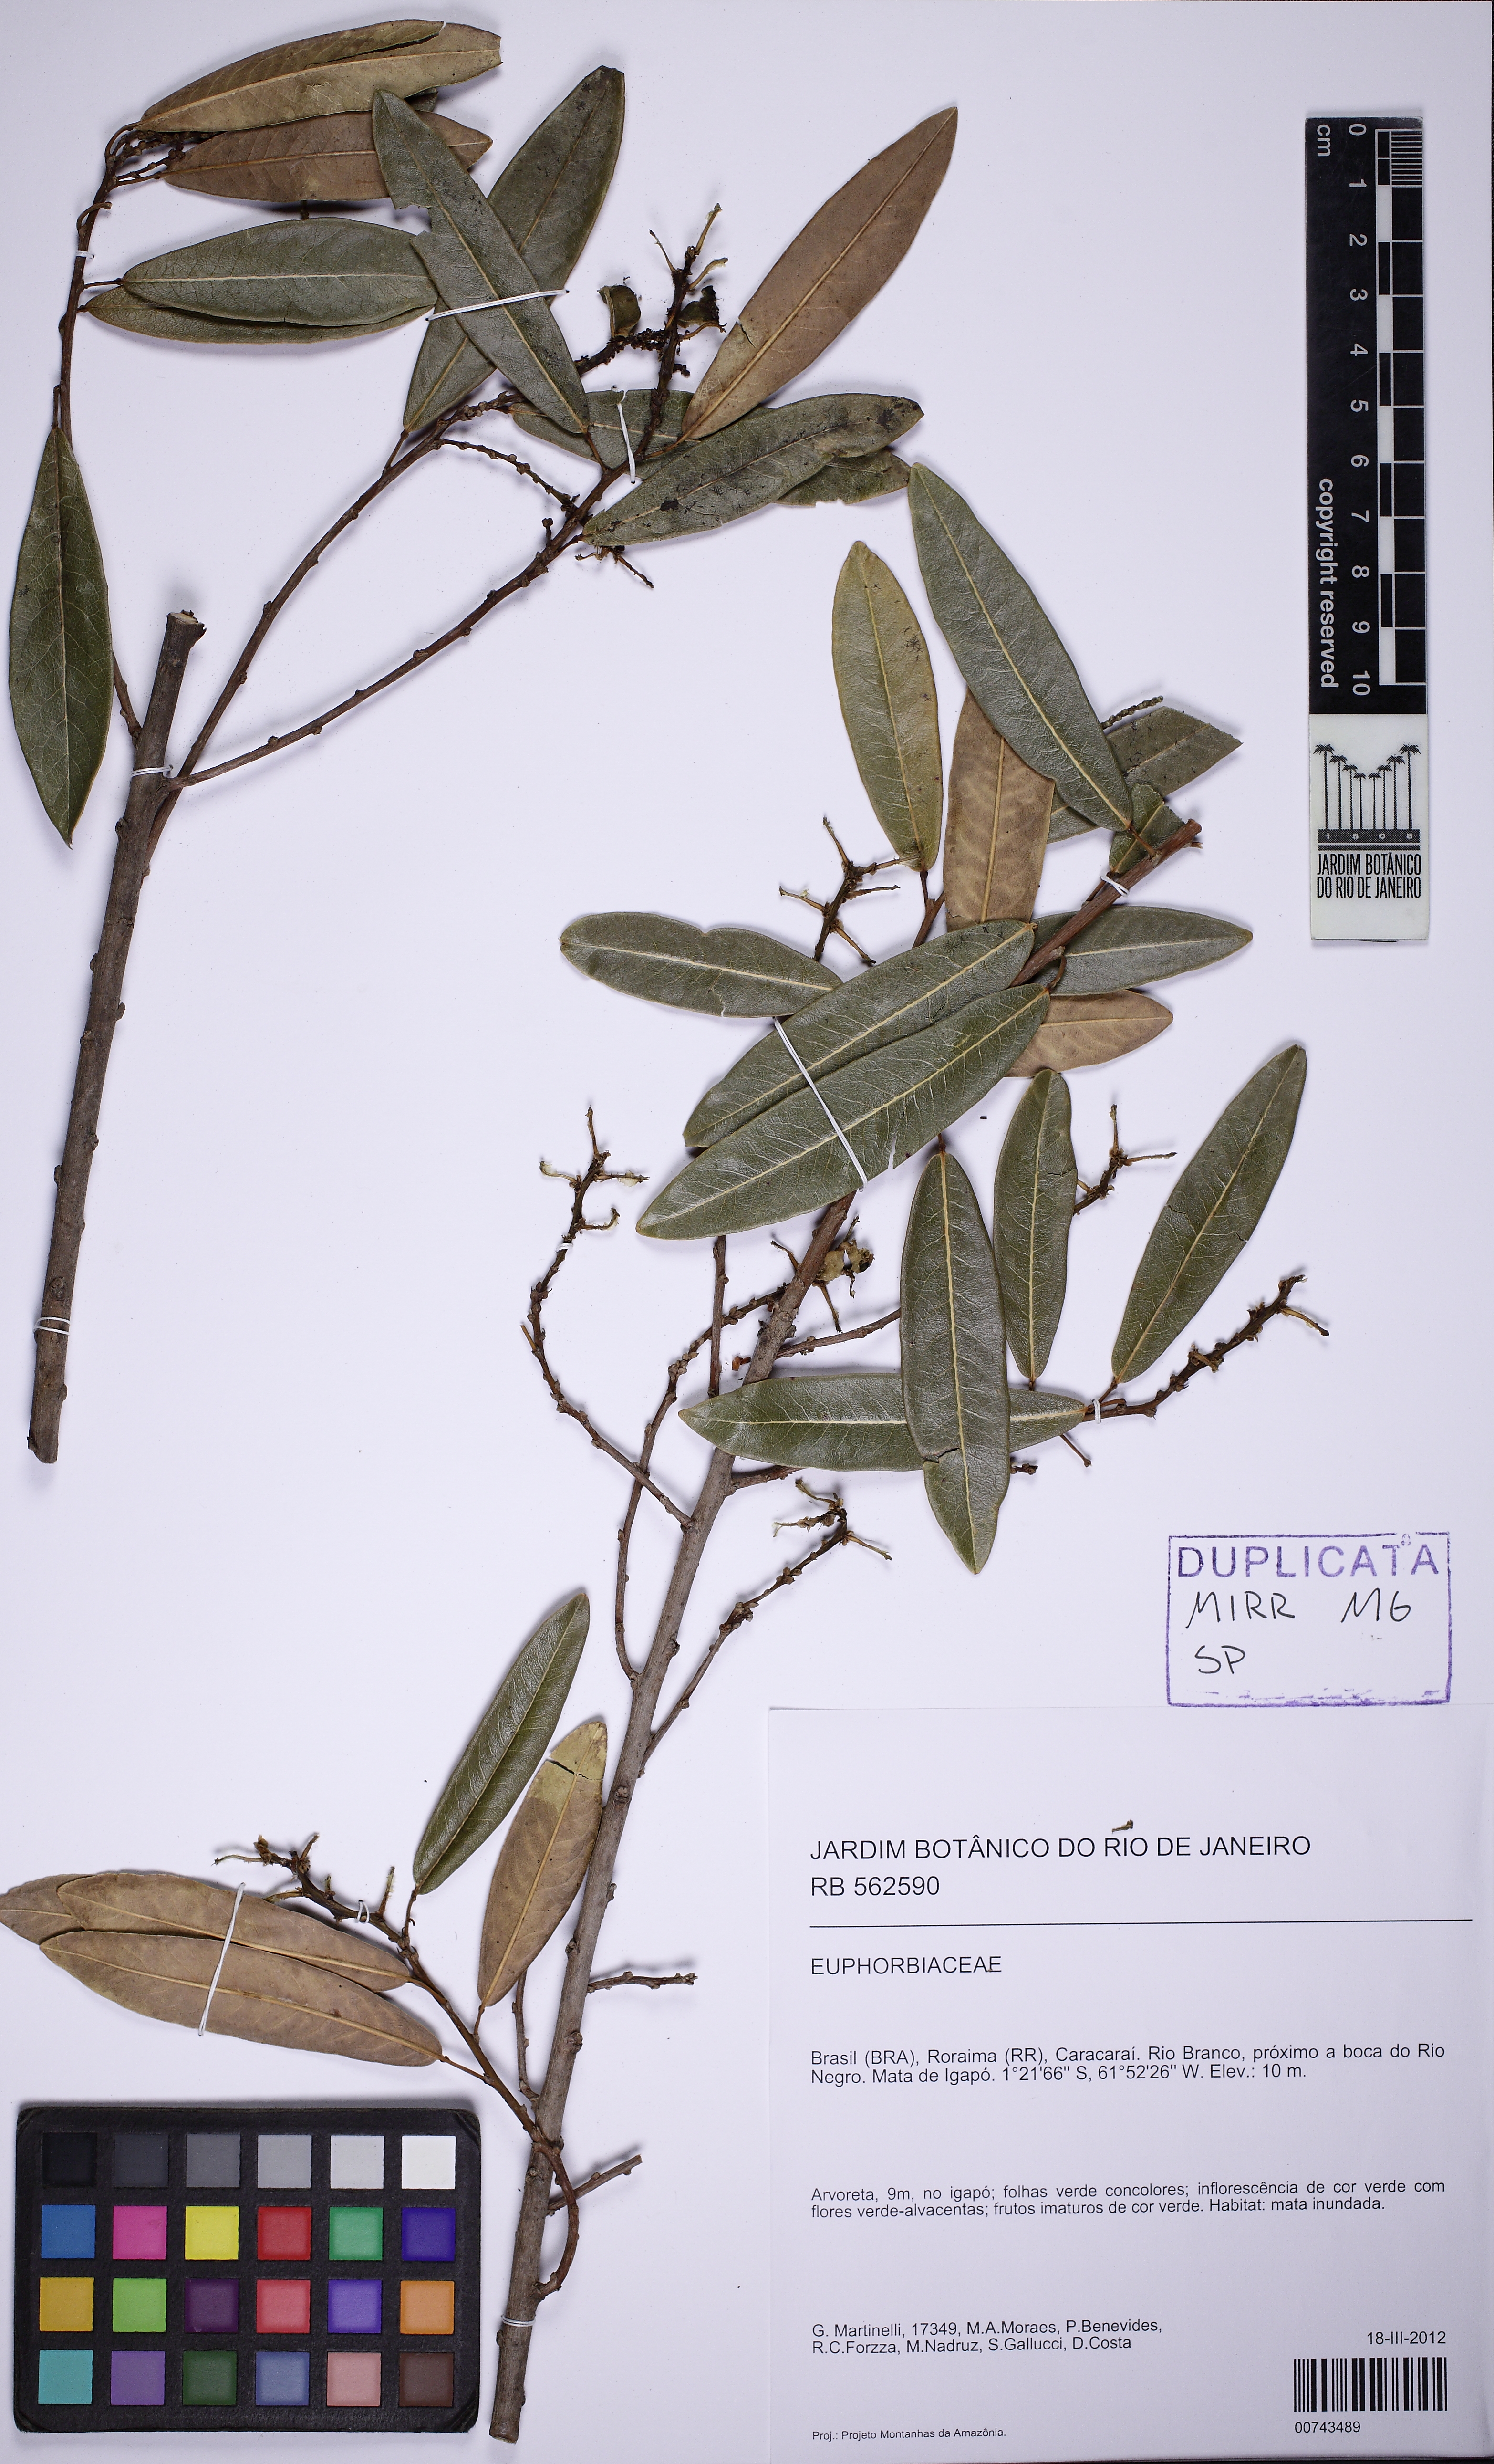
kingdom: Plantae
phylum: Tracheophyta
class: Magnoliopsida
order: Malpighiales
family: Euphorbiaceae
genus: Sapium
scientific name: Sapium
